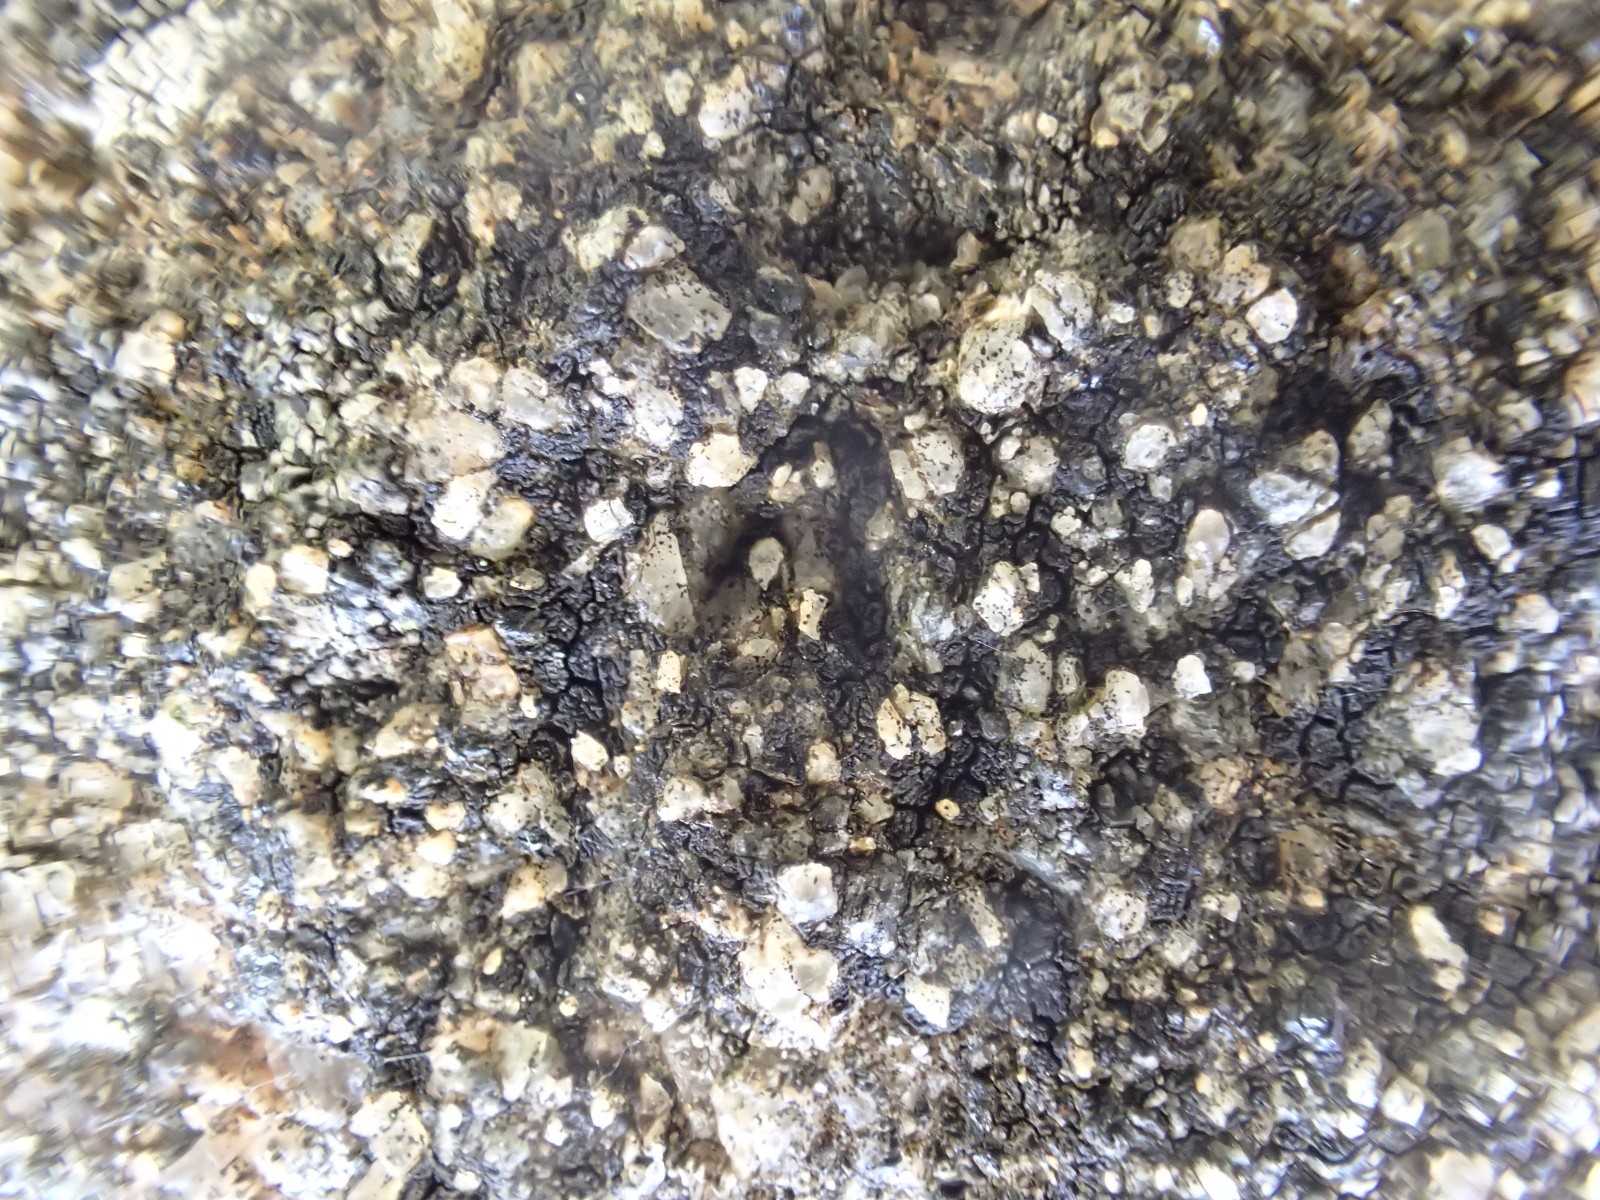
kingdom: Fungi
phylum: Ascomycota
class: Lecanoromycetes
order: Acarosporales
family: Acarosporaceae
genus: Acarospora
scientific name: Acarospora privigna
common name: sort foldekantlav
